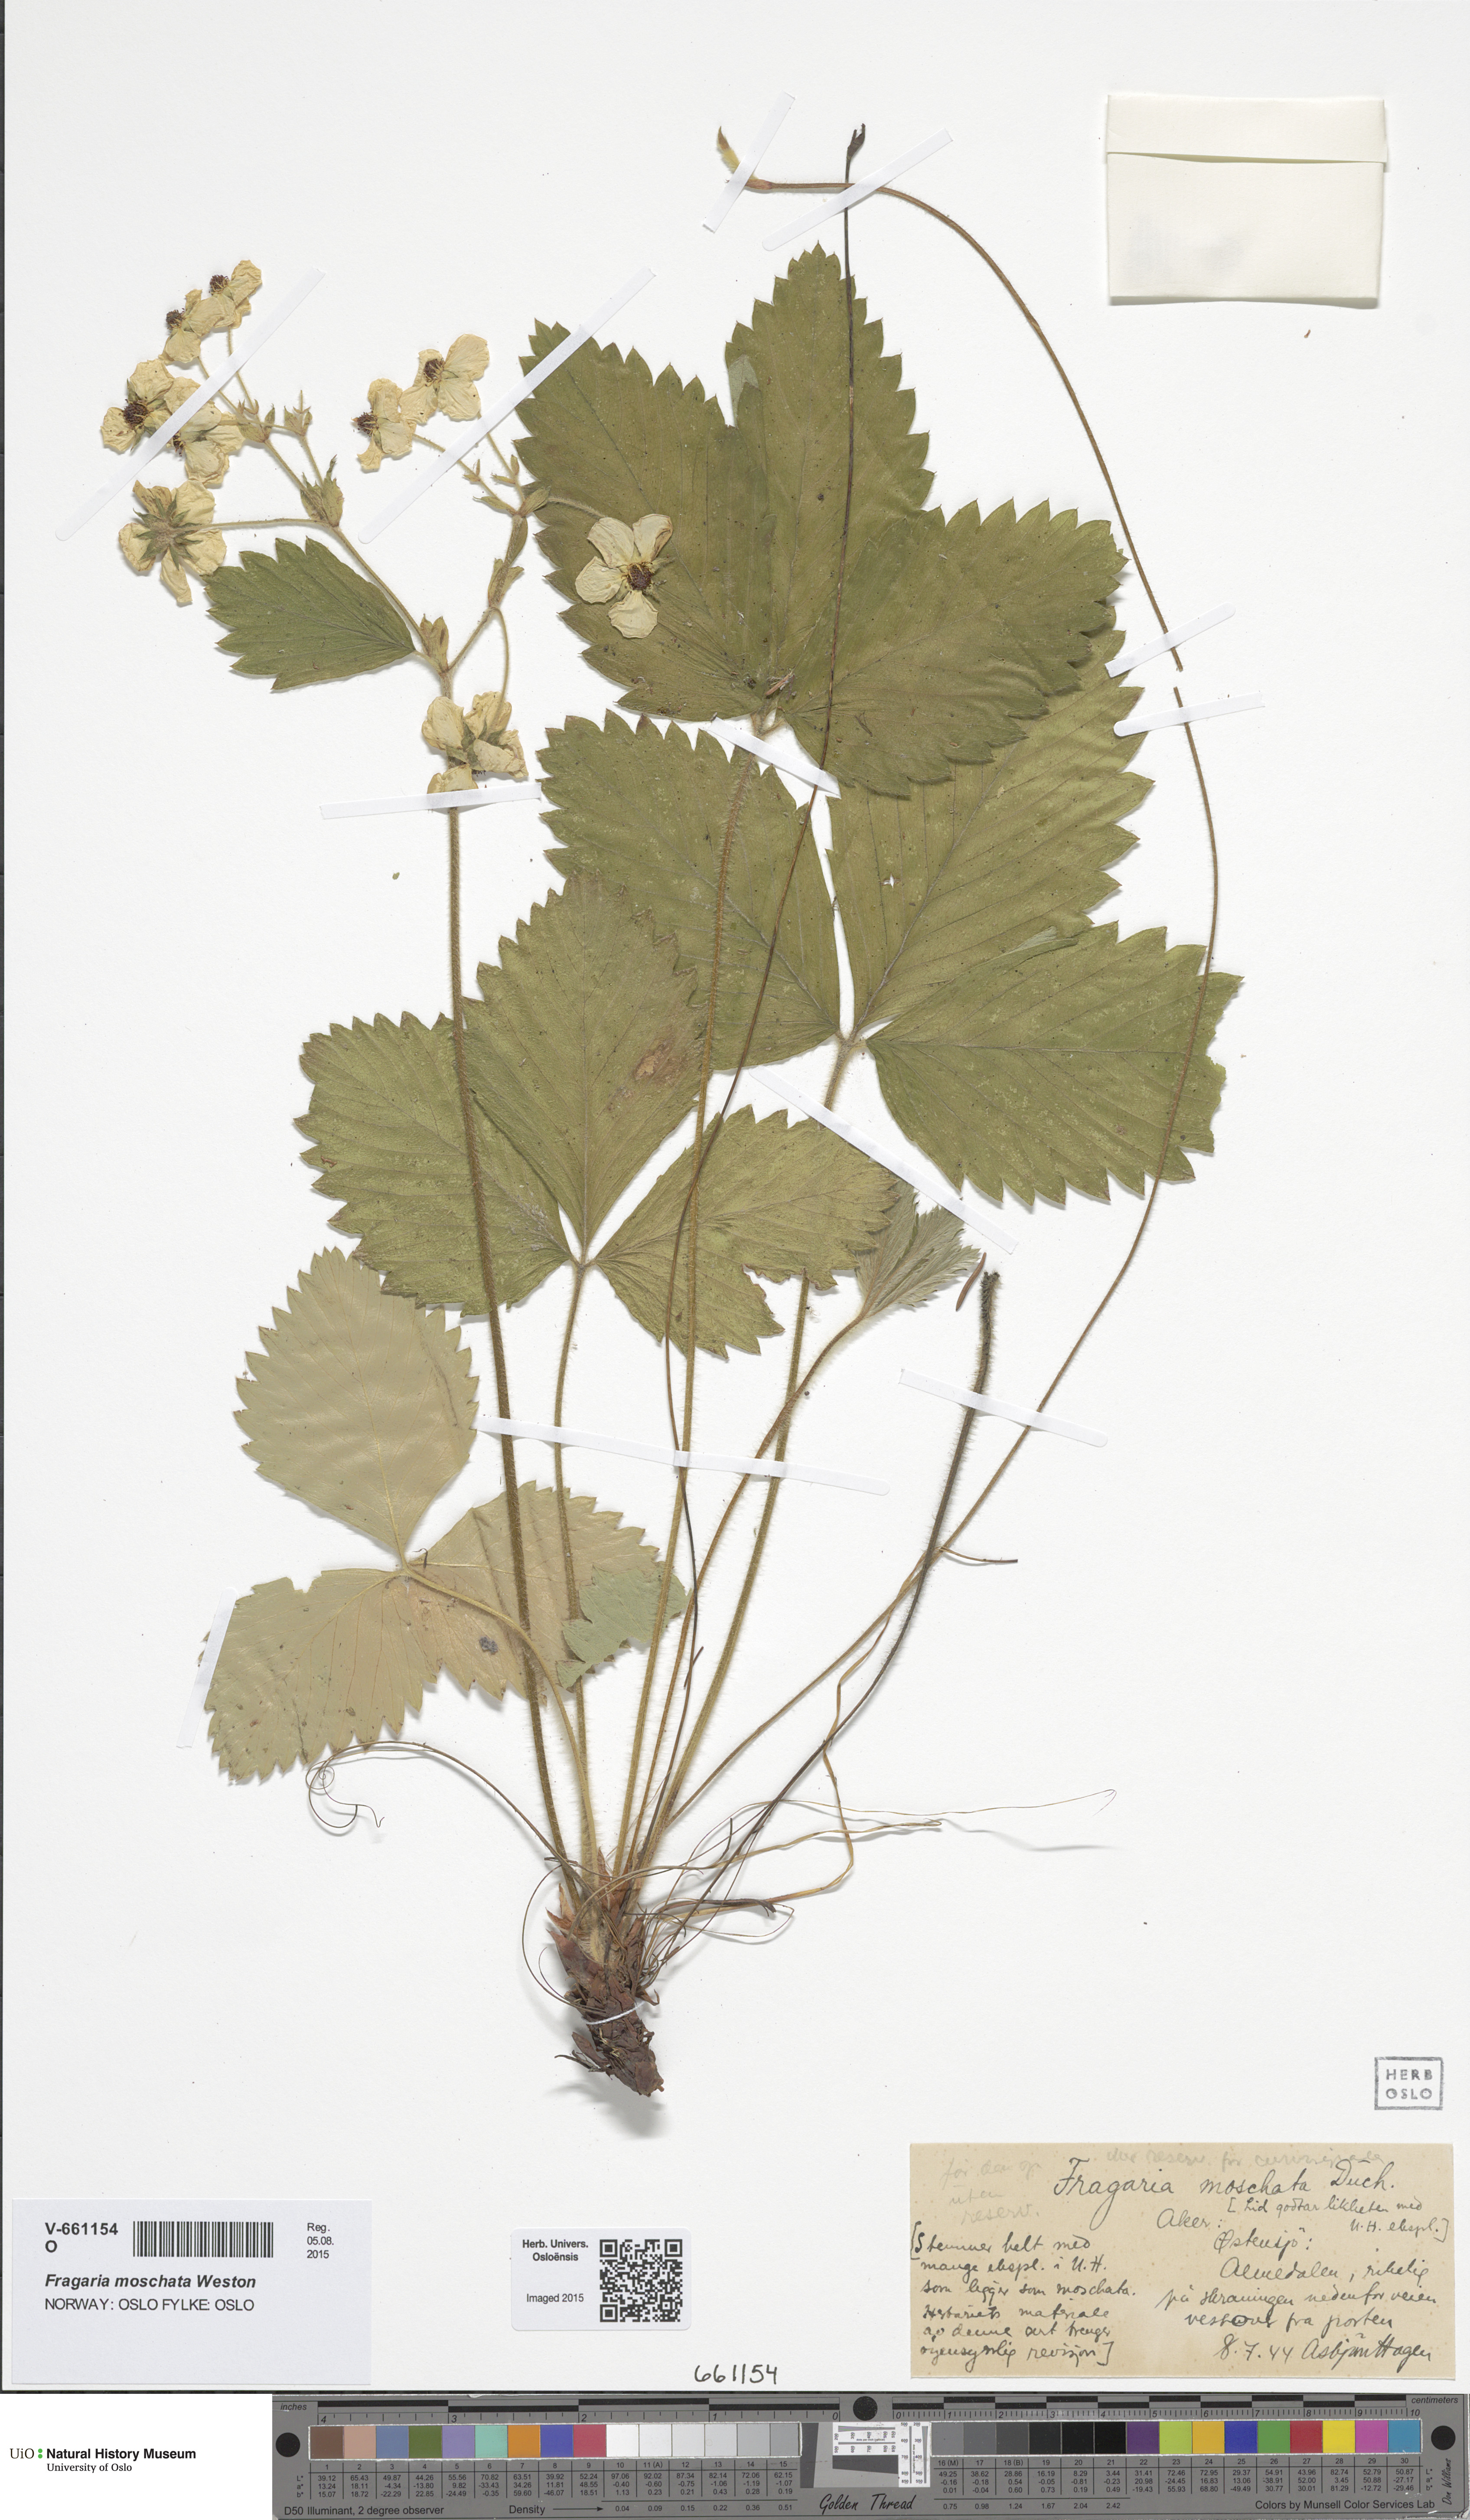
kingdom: Plantae
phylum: Tracheophyta
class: Magnoliopsida
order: Rosales
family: Rosaceae
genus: Fragaria
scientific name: Fragaria moschata
